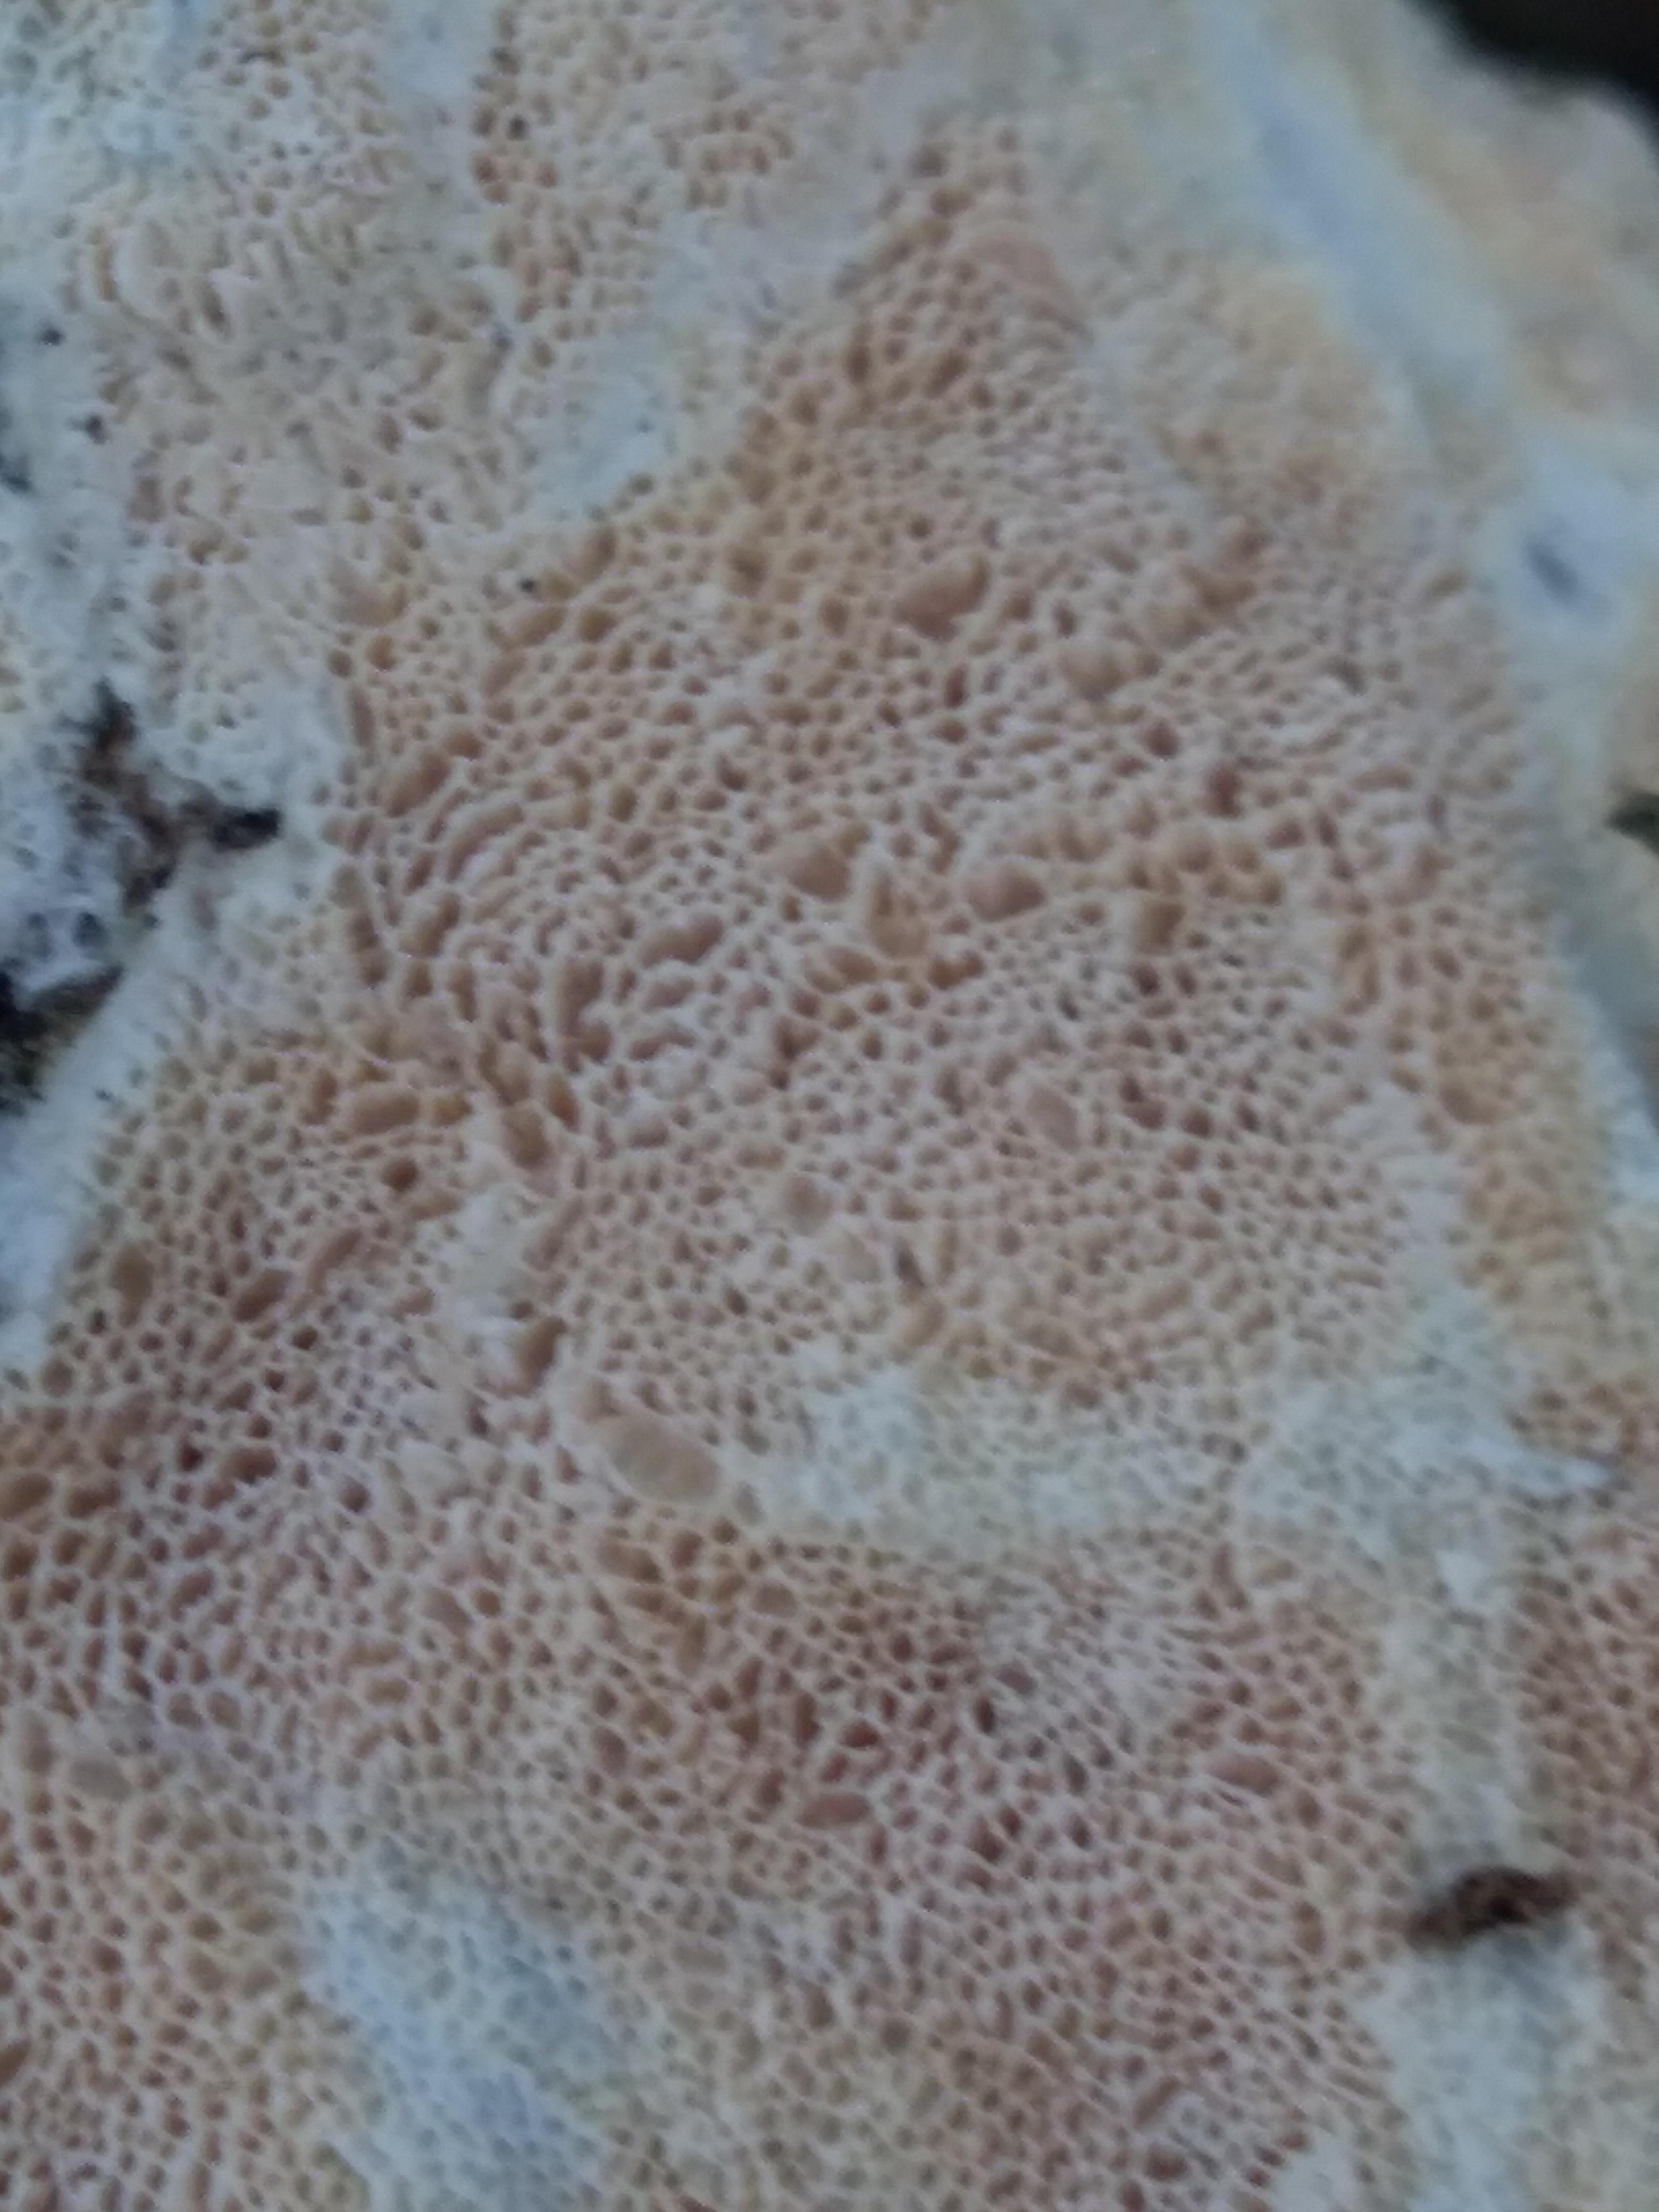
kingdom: Fungi
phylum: Basidiomycota
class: Agaricomycetes
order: Polyporales
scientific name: Polyporales
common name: poresvampordenen
